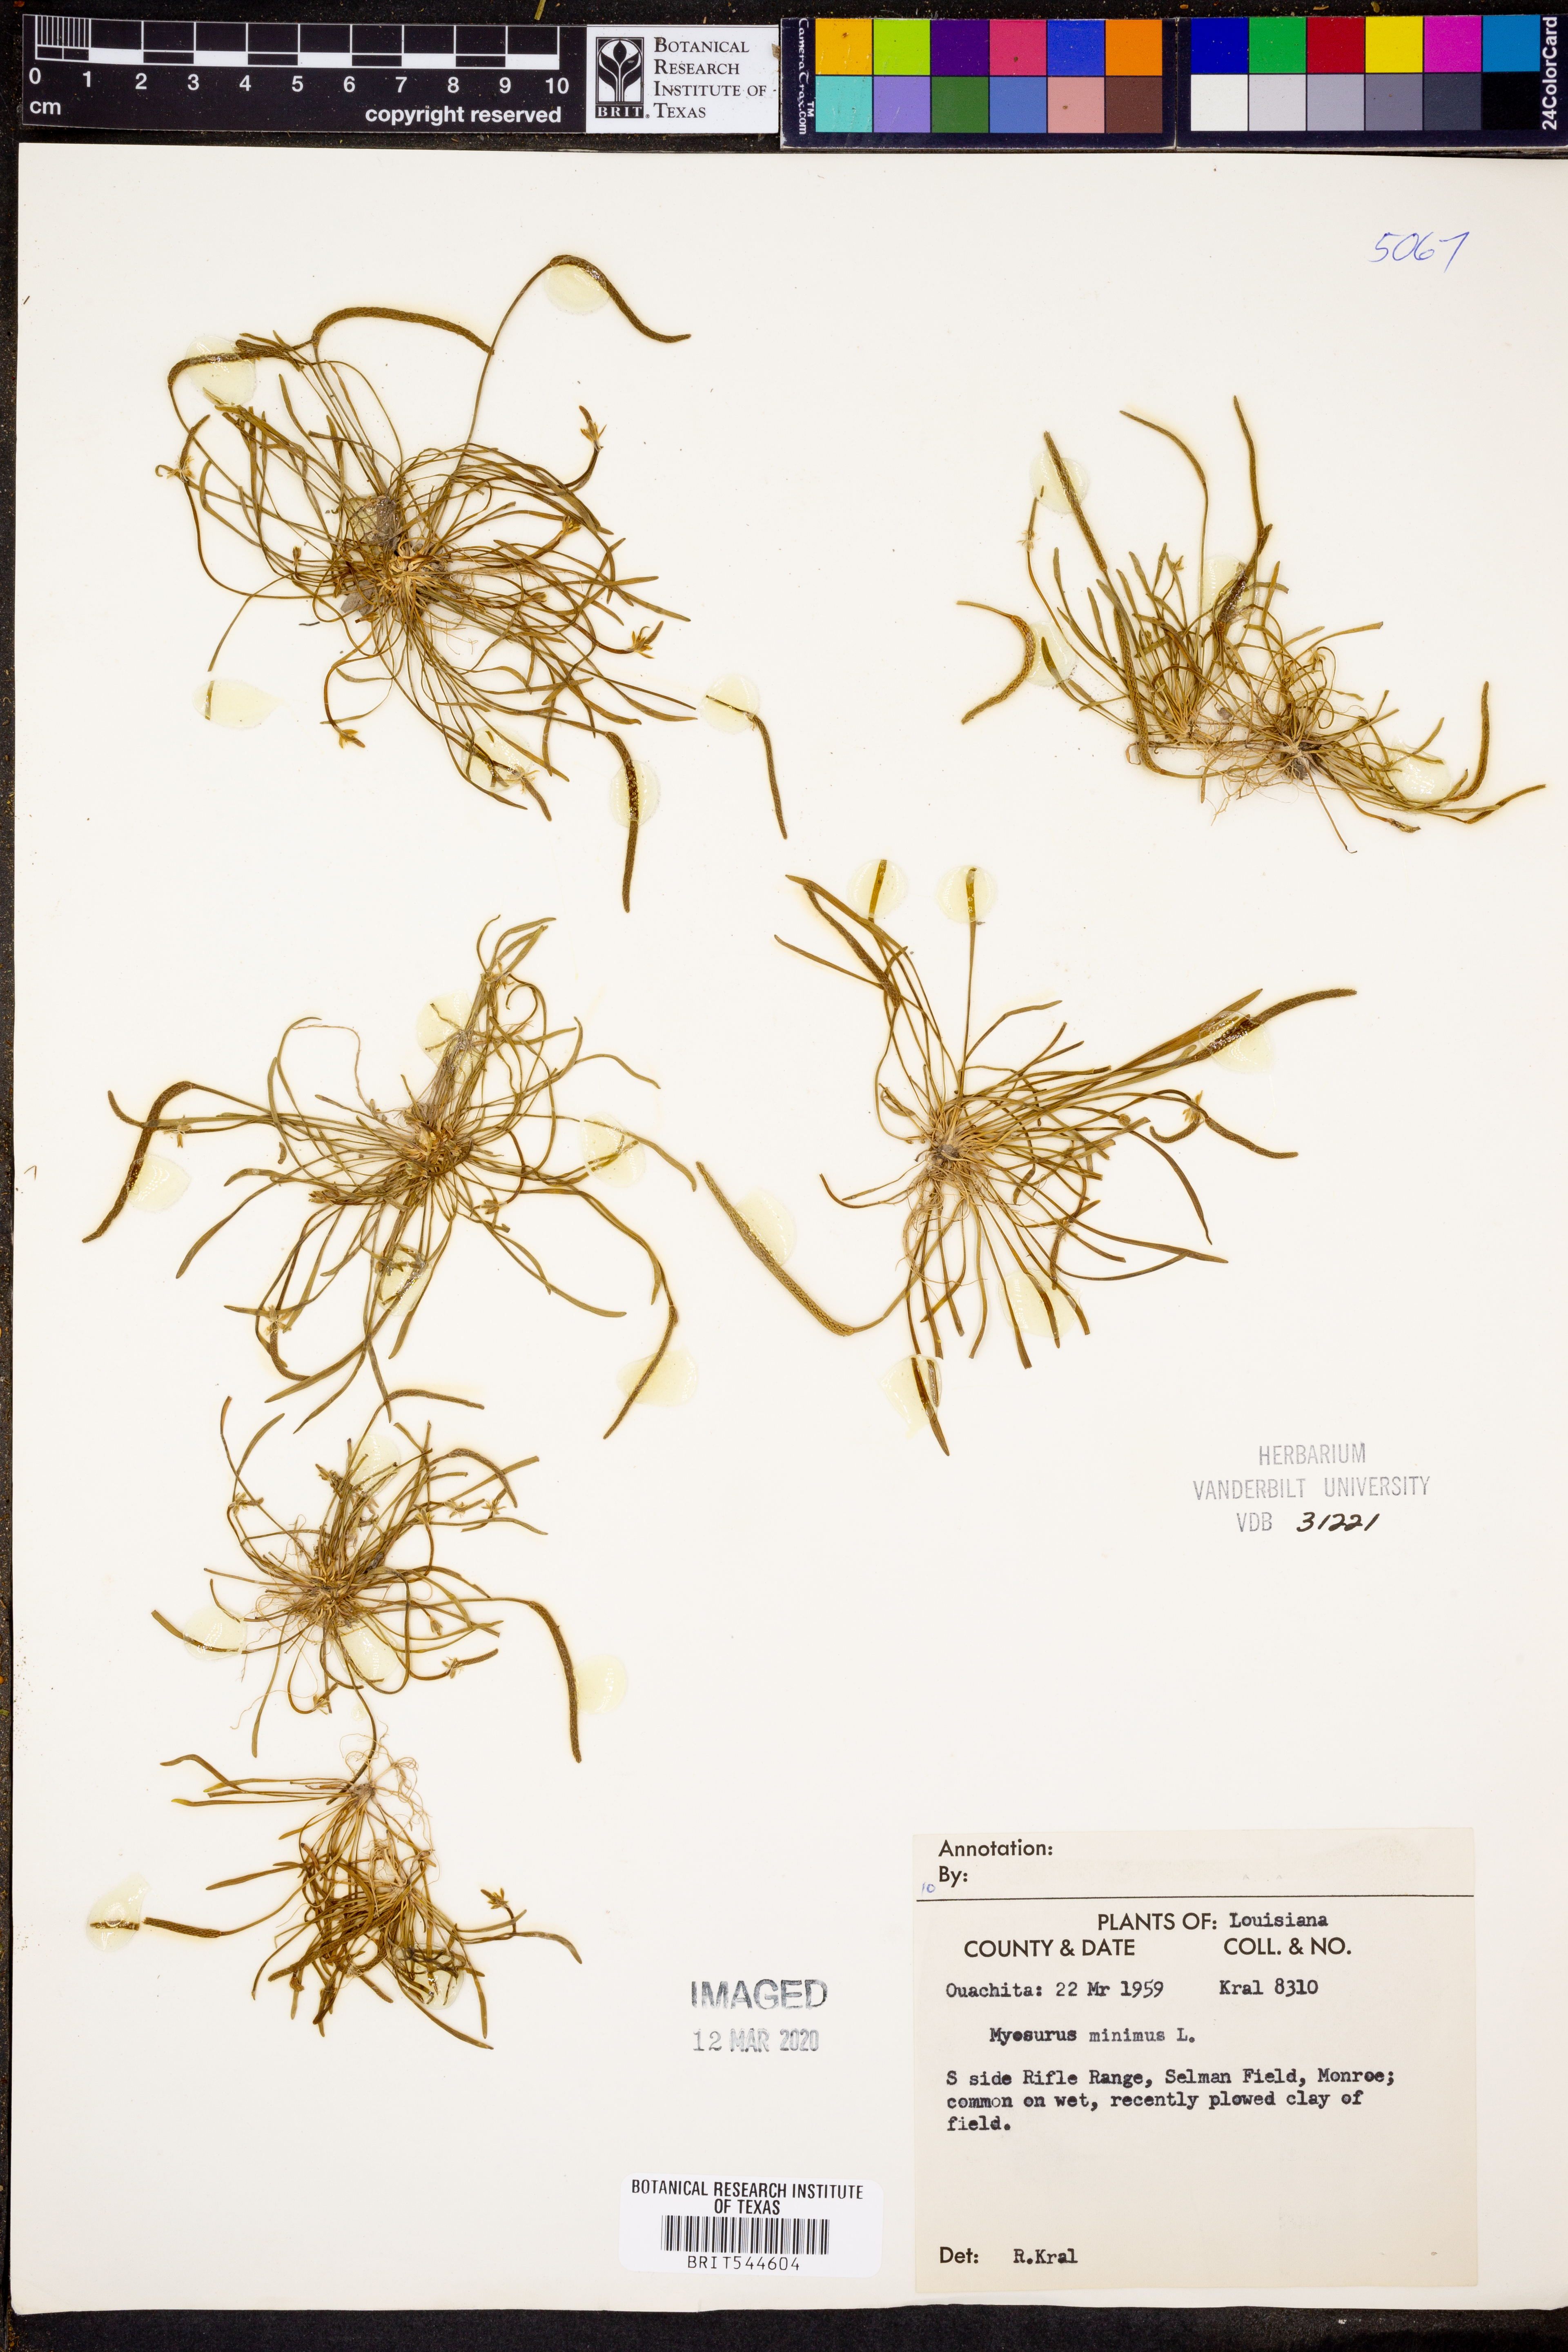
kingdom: Plantae
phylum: Tracheophyta
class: Magnoliopsida
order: Ranunculales
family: Ranunculaceae
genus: Myosurus
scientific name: Myosurus minimus
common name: Mousetail
